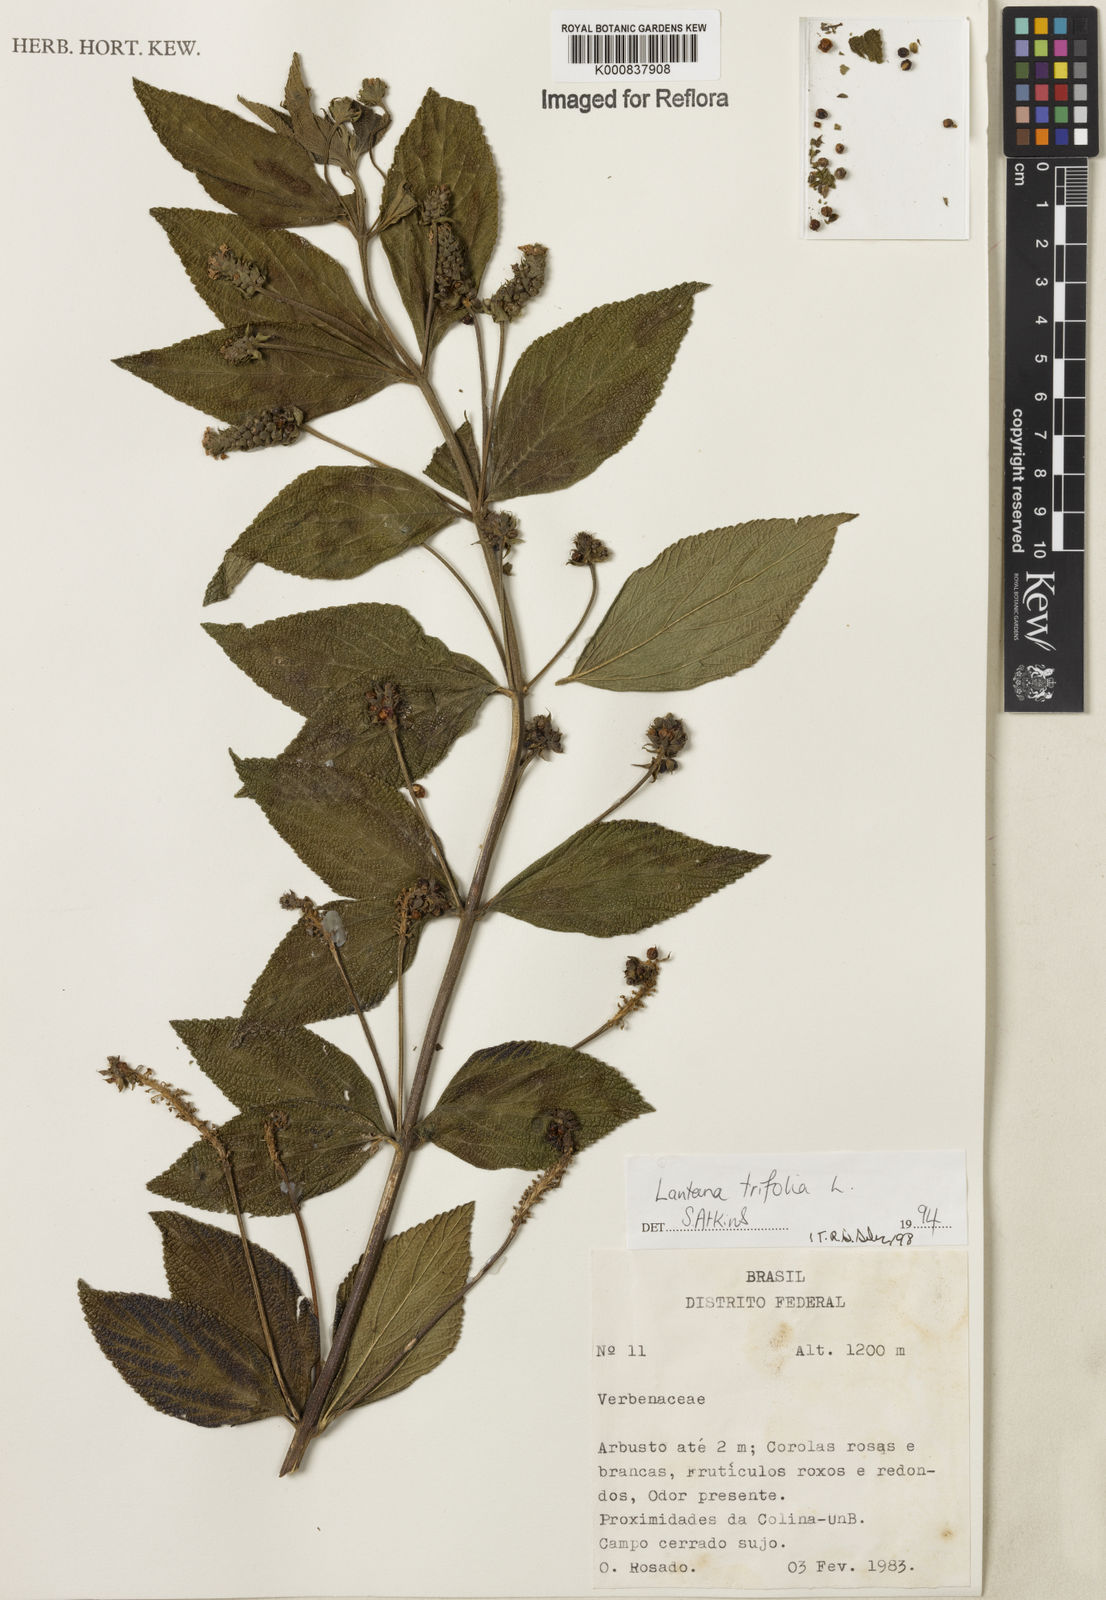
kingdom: Plantae
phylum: Tracheophyta
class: Magnoliopsida
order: Lamiales
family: Verbenaceae
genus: Lantana
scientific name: Lantana trifolia
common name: Sweet-sage
